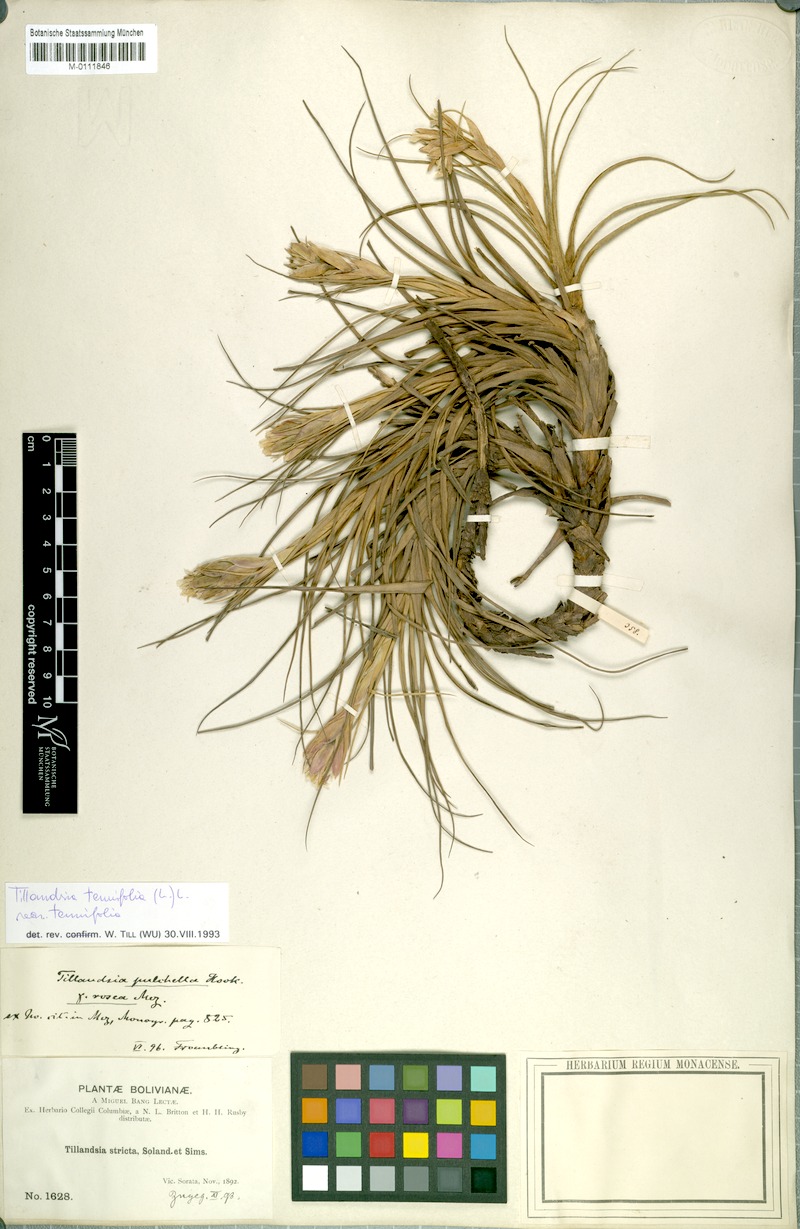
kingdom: Plantae
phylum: Tracheophyta
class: Liliopsida
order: Poales
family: Bromeliaceae
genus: Tillandsia
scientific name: Tillandsia tenuifolia
